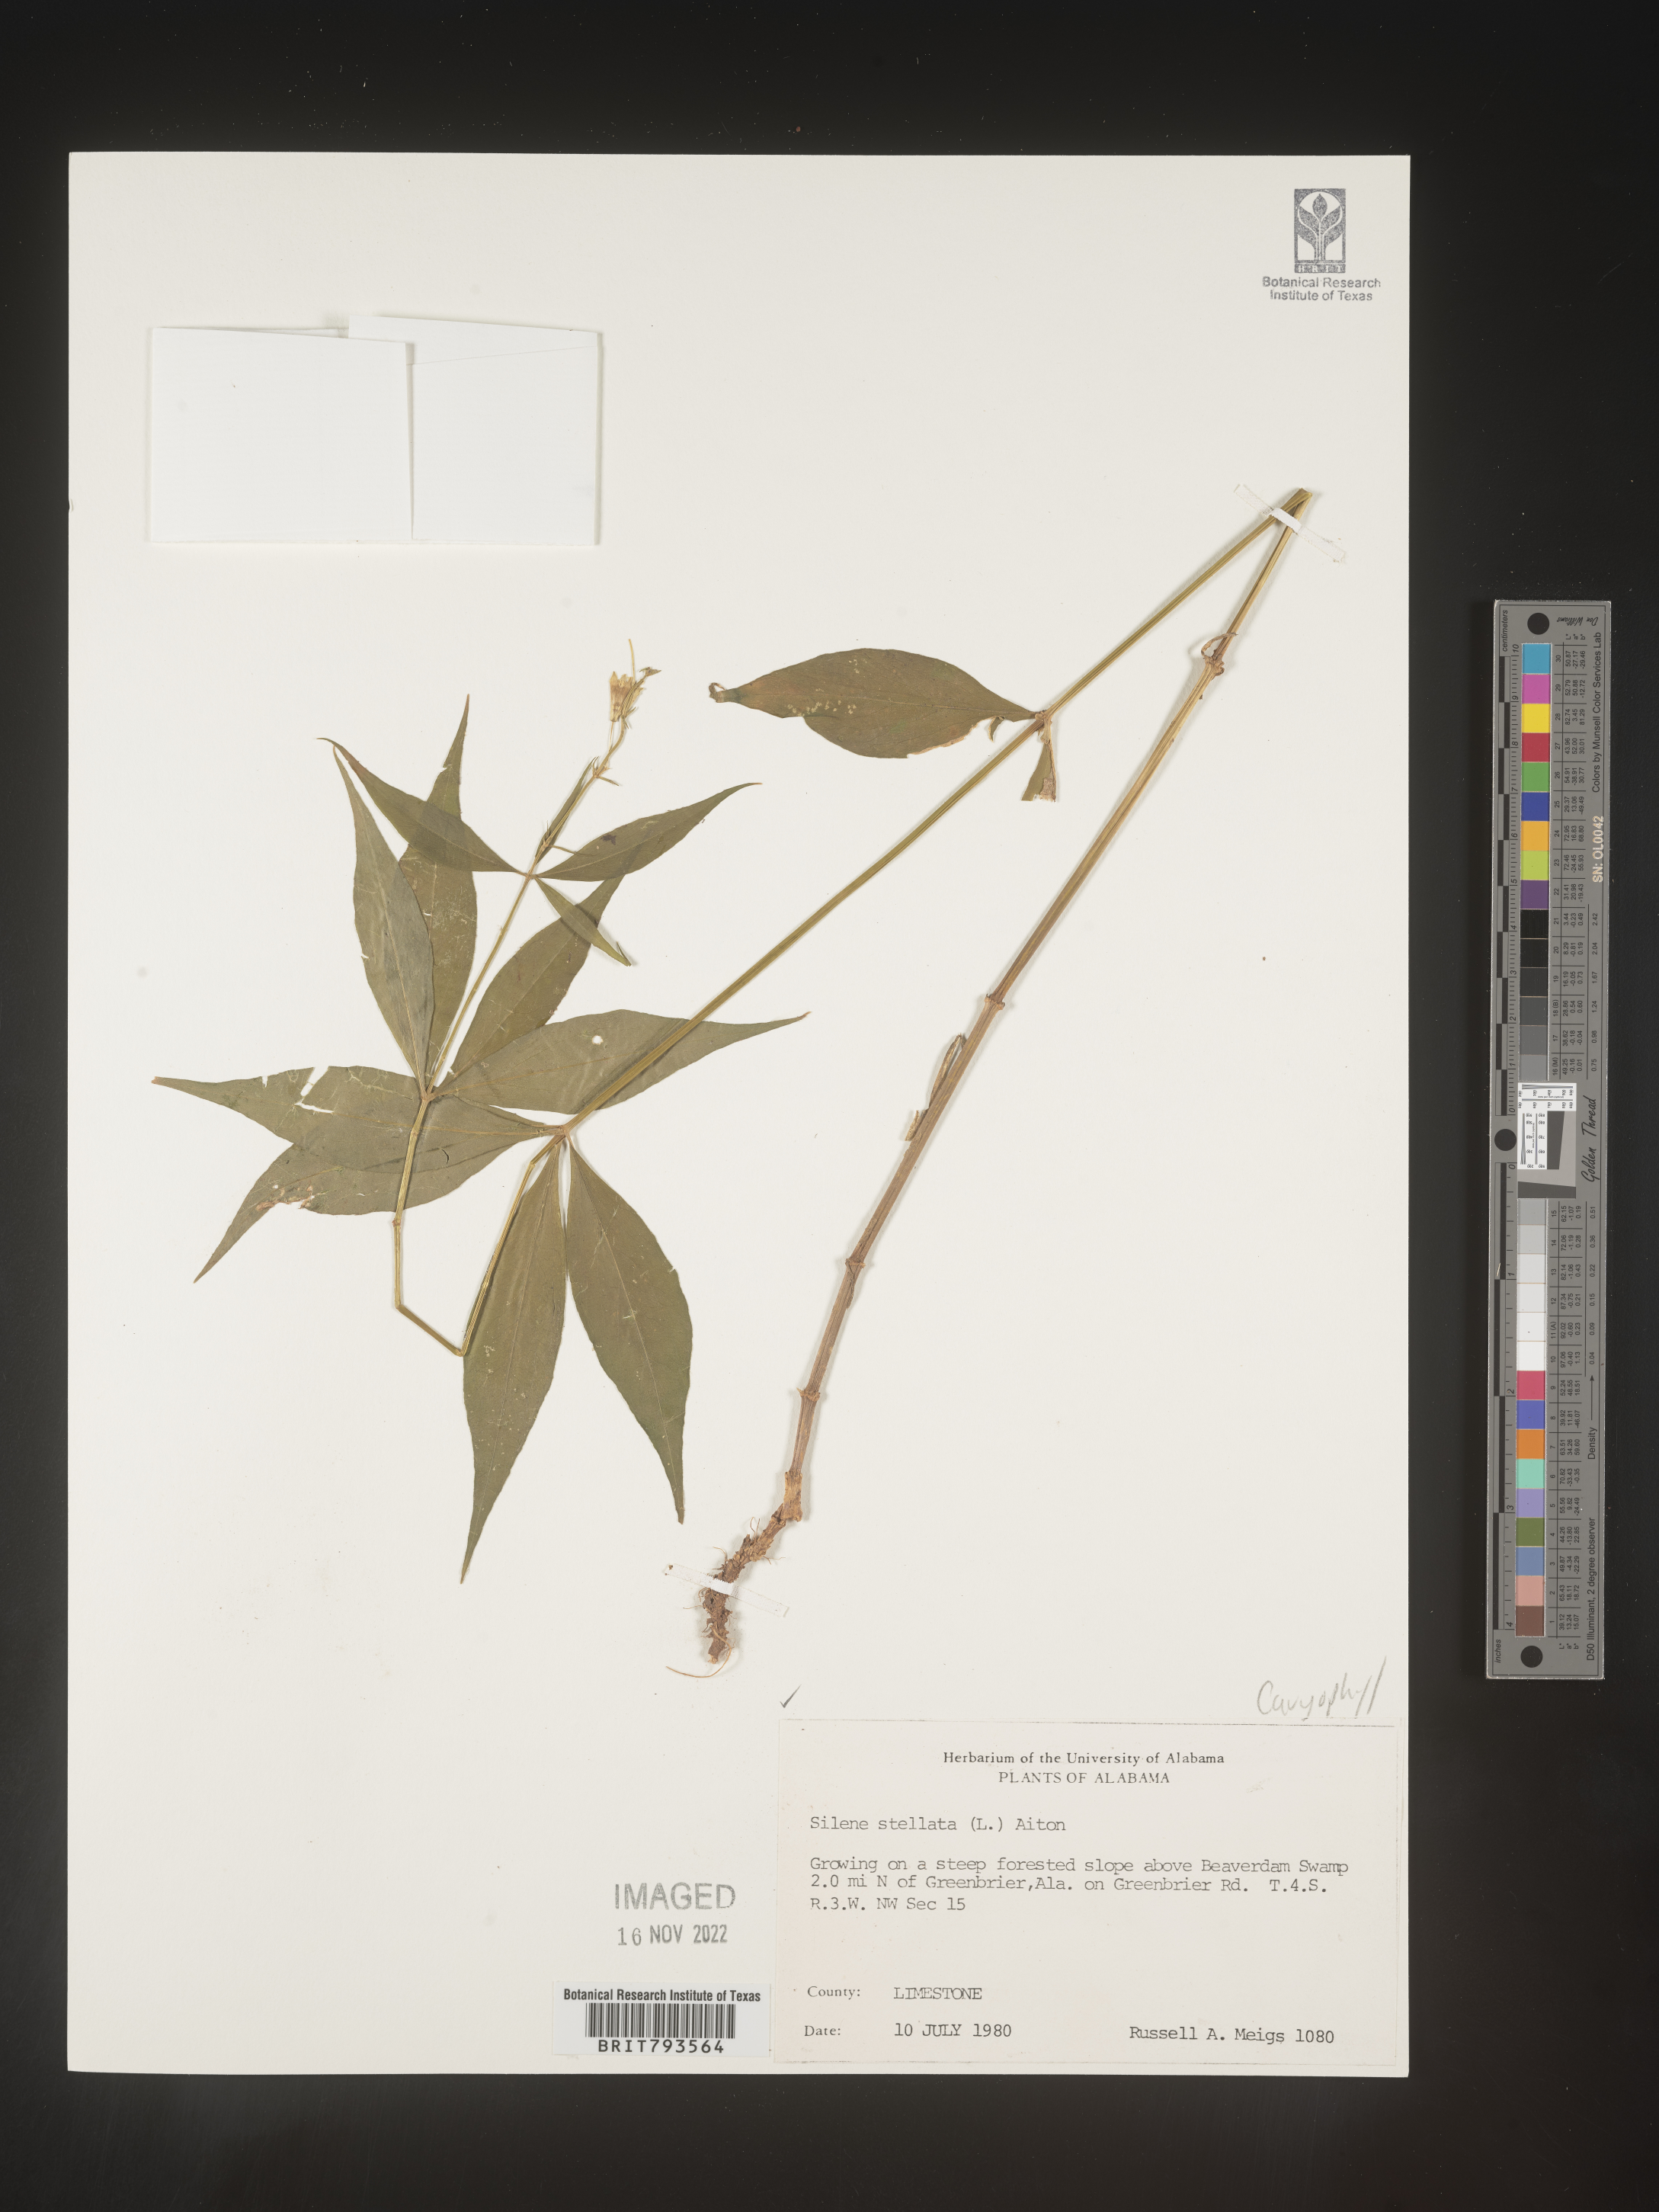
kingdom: Plantae
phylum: Tracheophyta
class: Magnoliopsida
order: Caryophyllales
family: Caryophyllaceae
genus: Silene
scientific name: Silene stellata
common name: Starry campion
